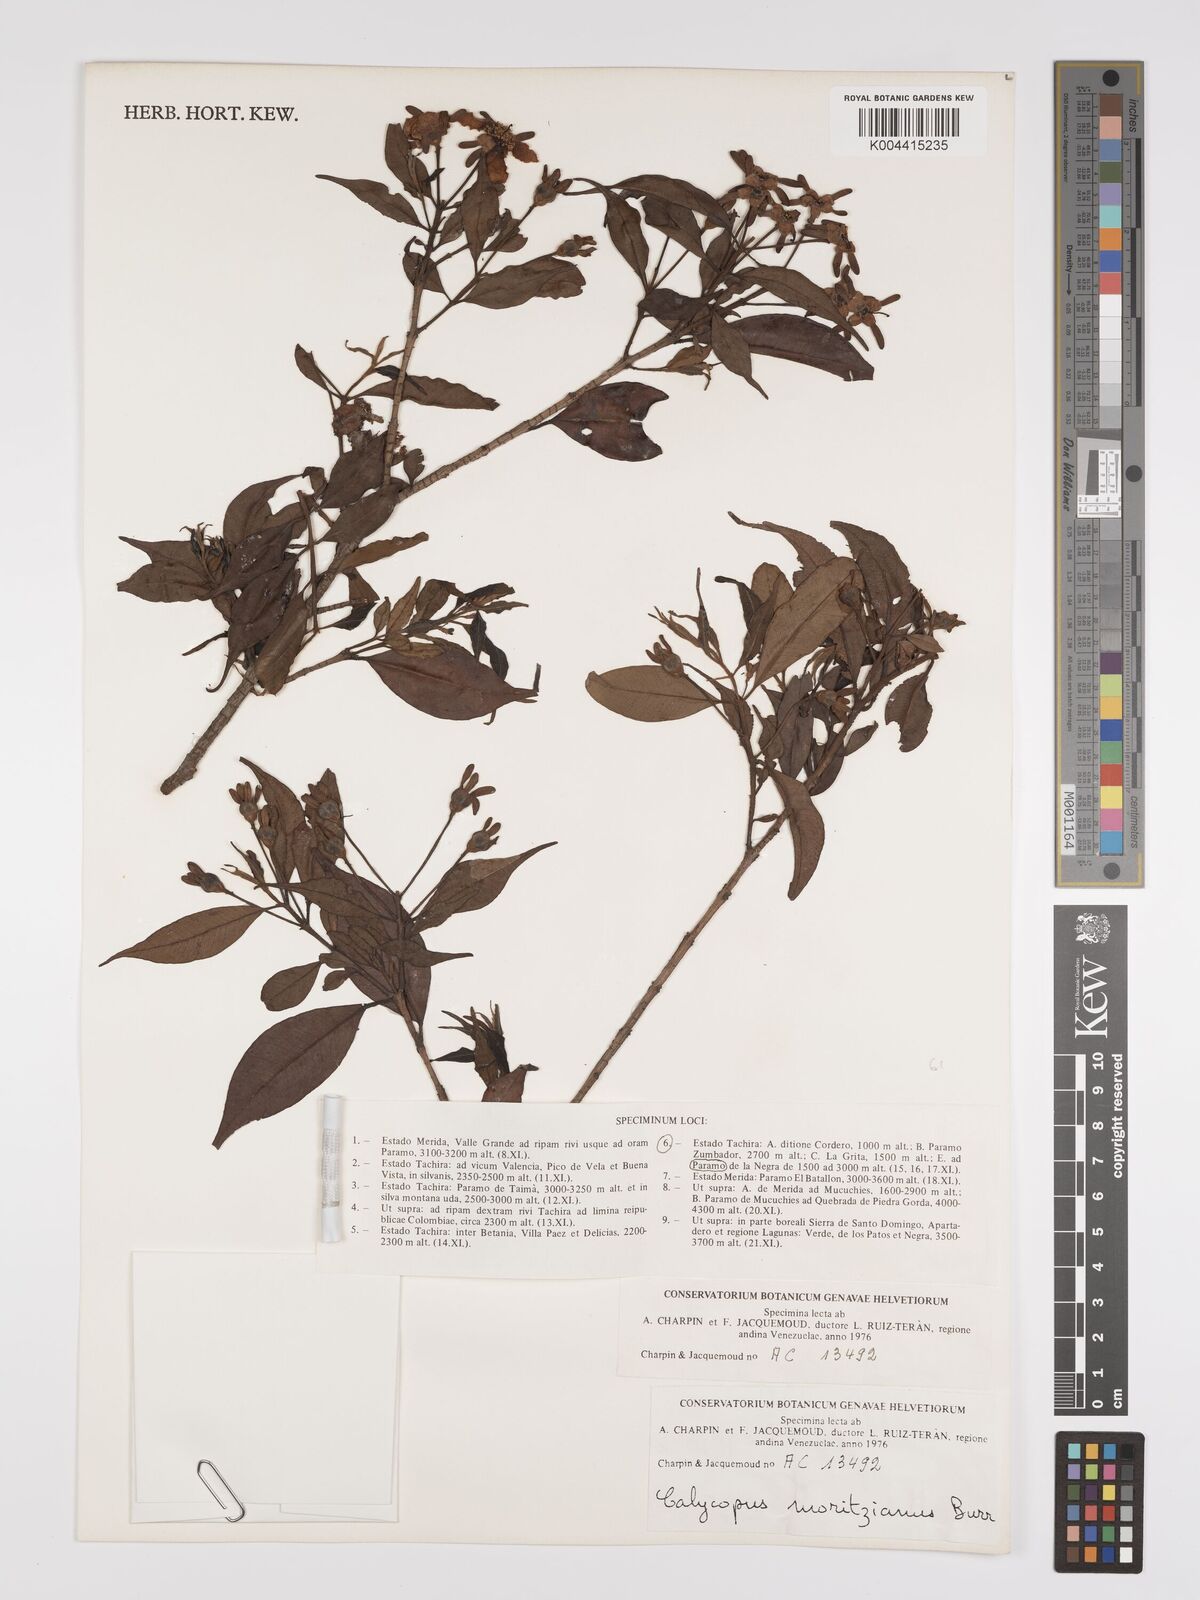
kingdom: Plantae
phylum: Tracheophyta
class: Magnoliopsida
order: Myrtales
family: Myrtaceae
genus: Calycolpus
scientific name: Calycolpus moritzianus
